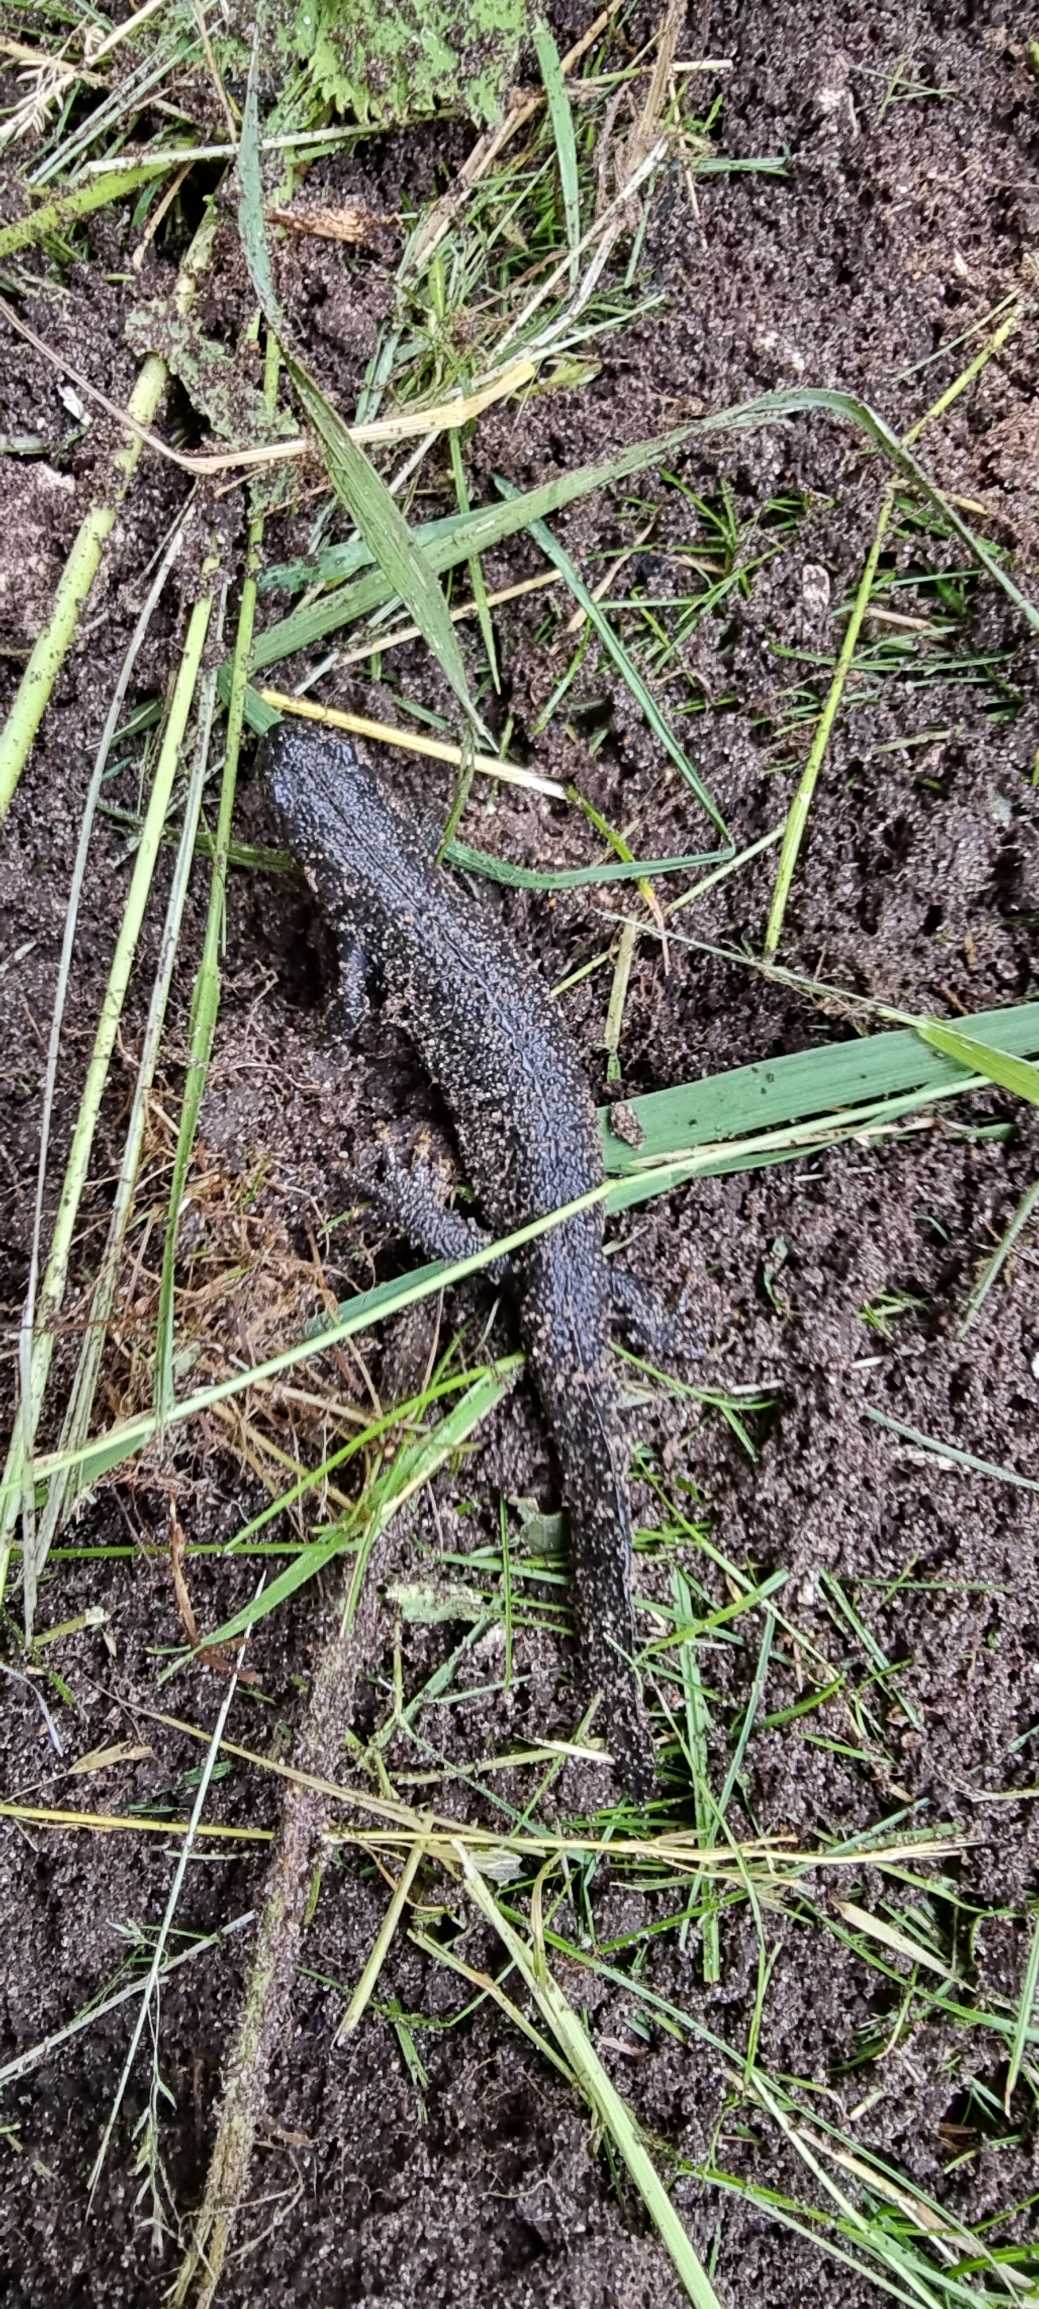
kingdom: Animalia
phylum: Chordata
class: Amphibia
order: Caudata
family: Salamandridae
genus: Triturus
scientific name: Triturus cristatus
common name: Stor vandsalamander
